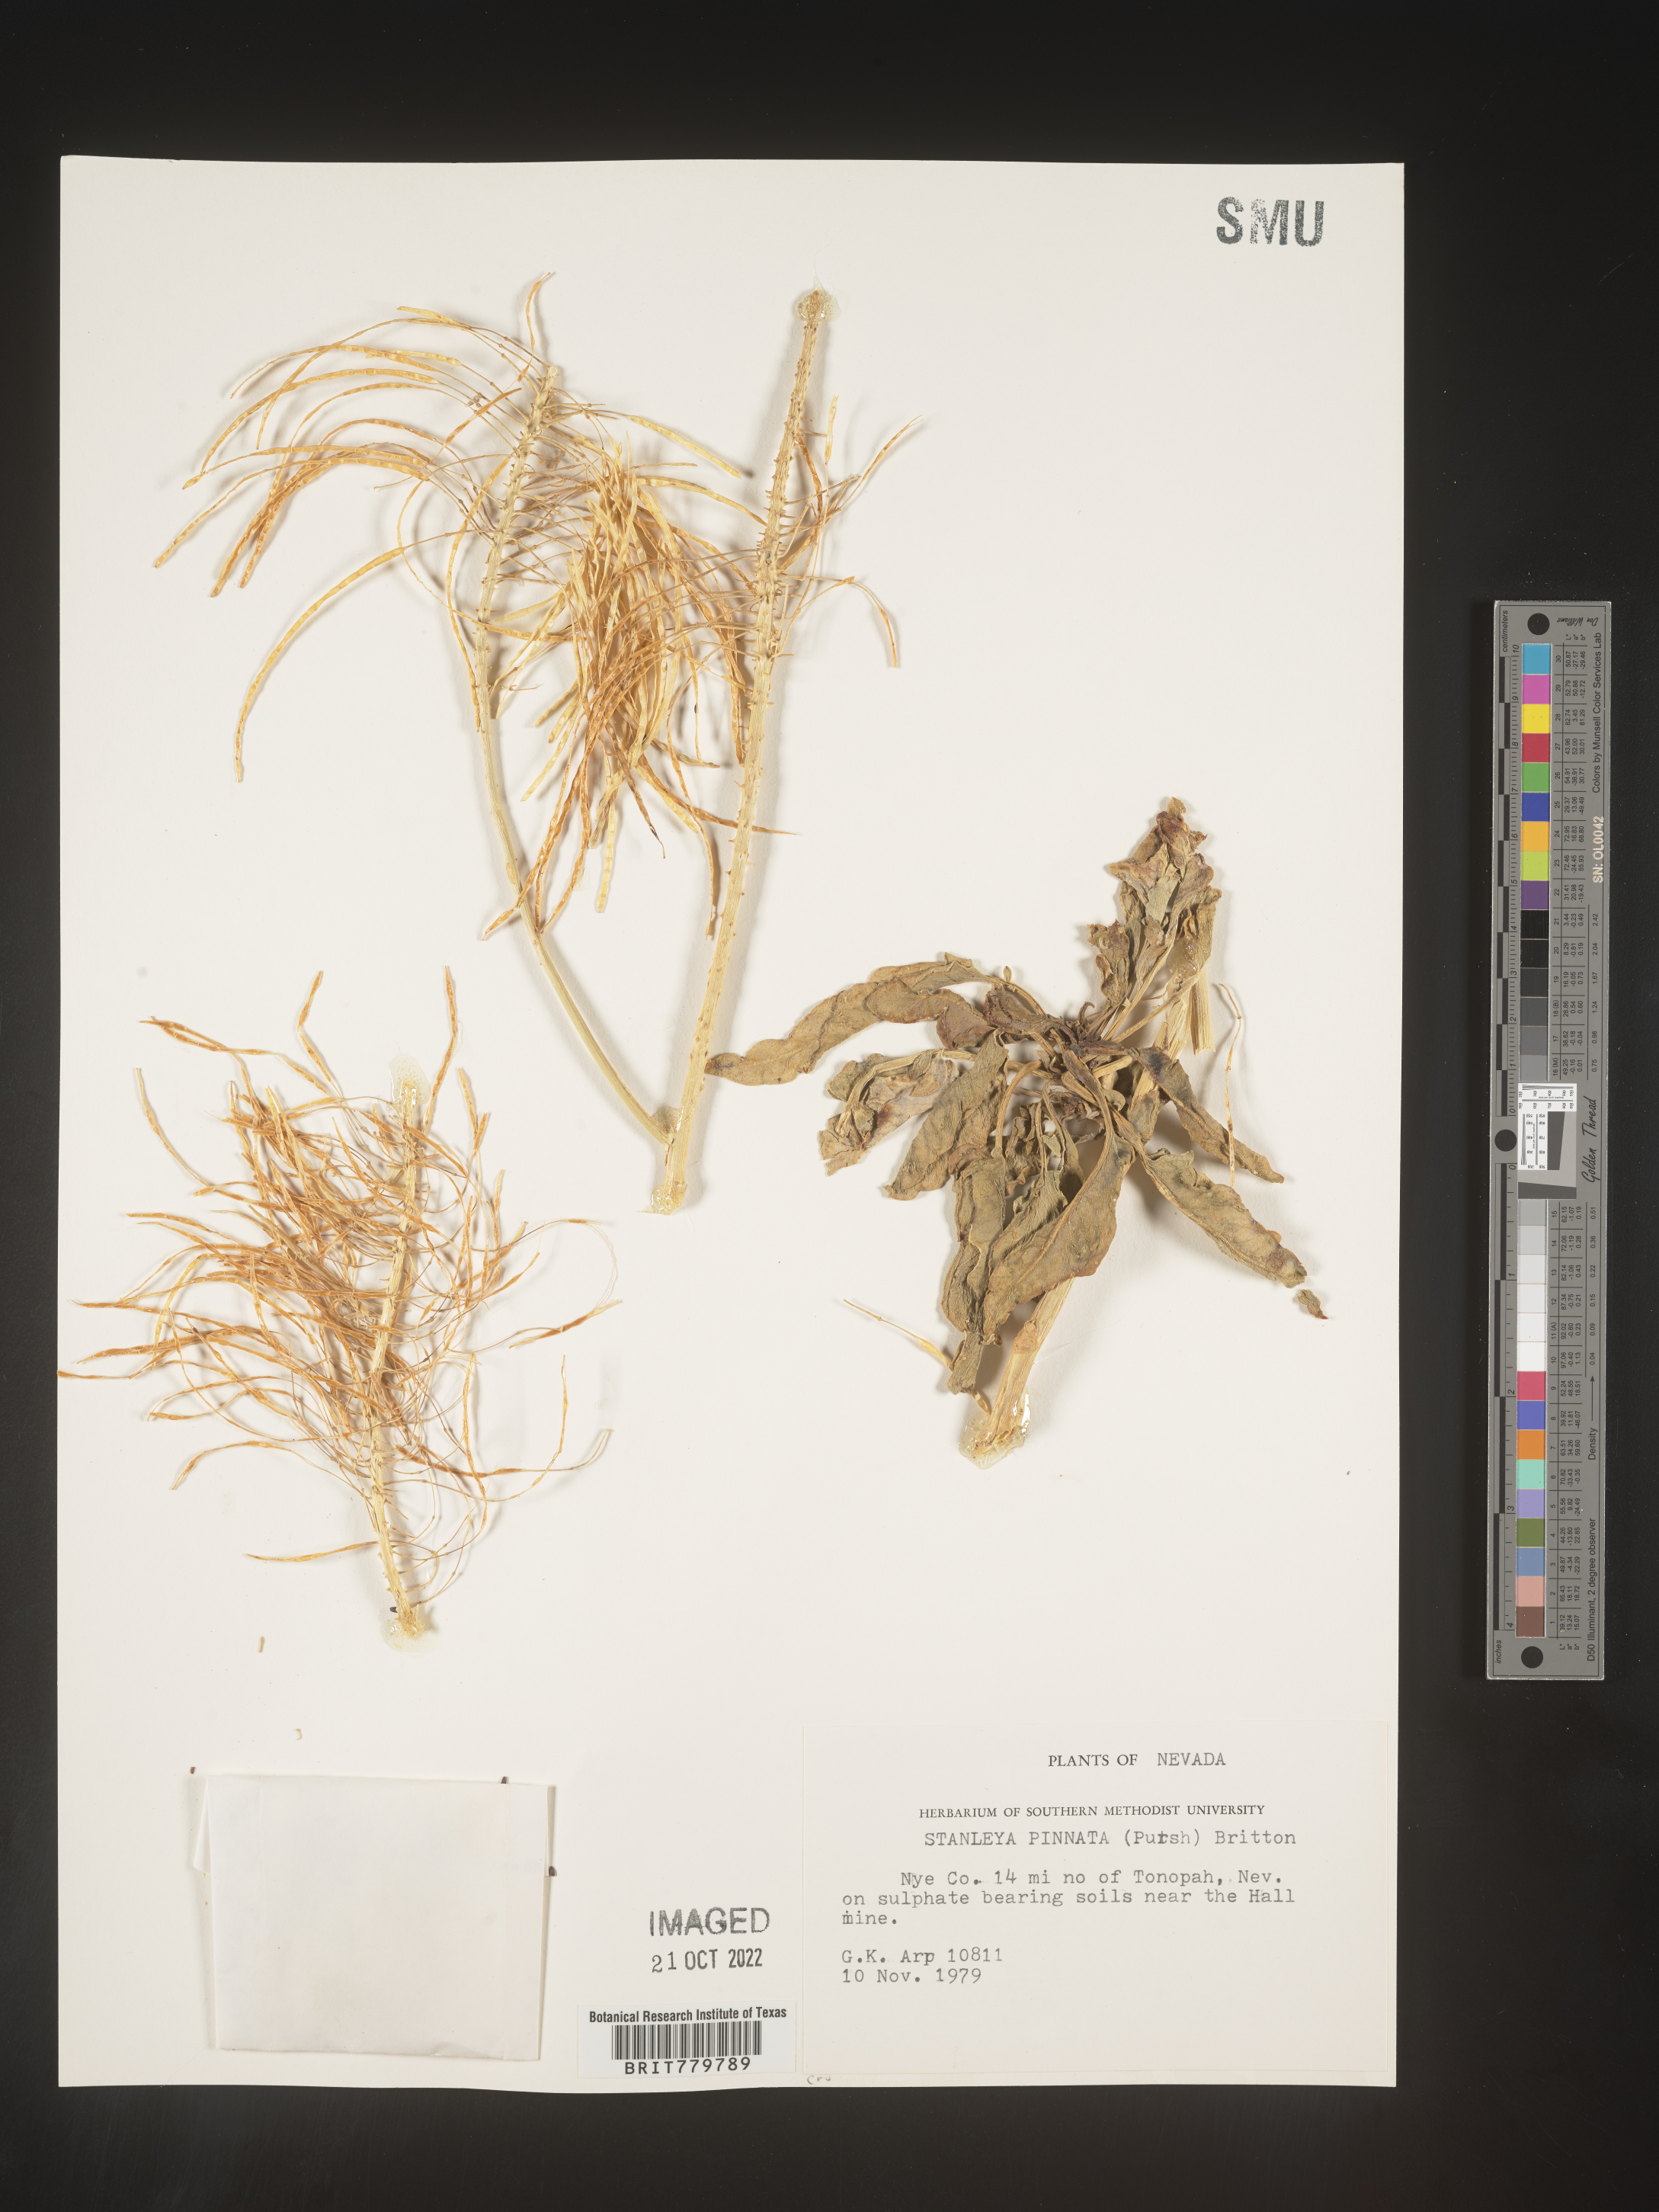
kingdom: Plantae
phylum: Tracheophyta
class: Magnoliopsida
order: Brassicales
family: Brassicaceae
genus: Stanleya
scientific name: Stanleya pinnata
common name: Prince's-plume
